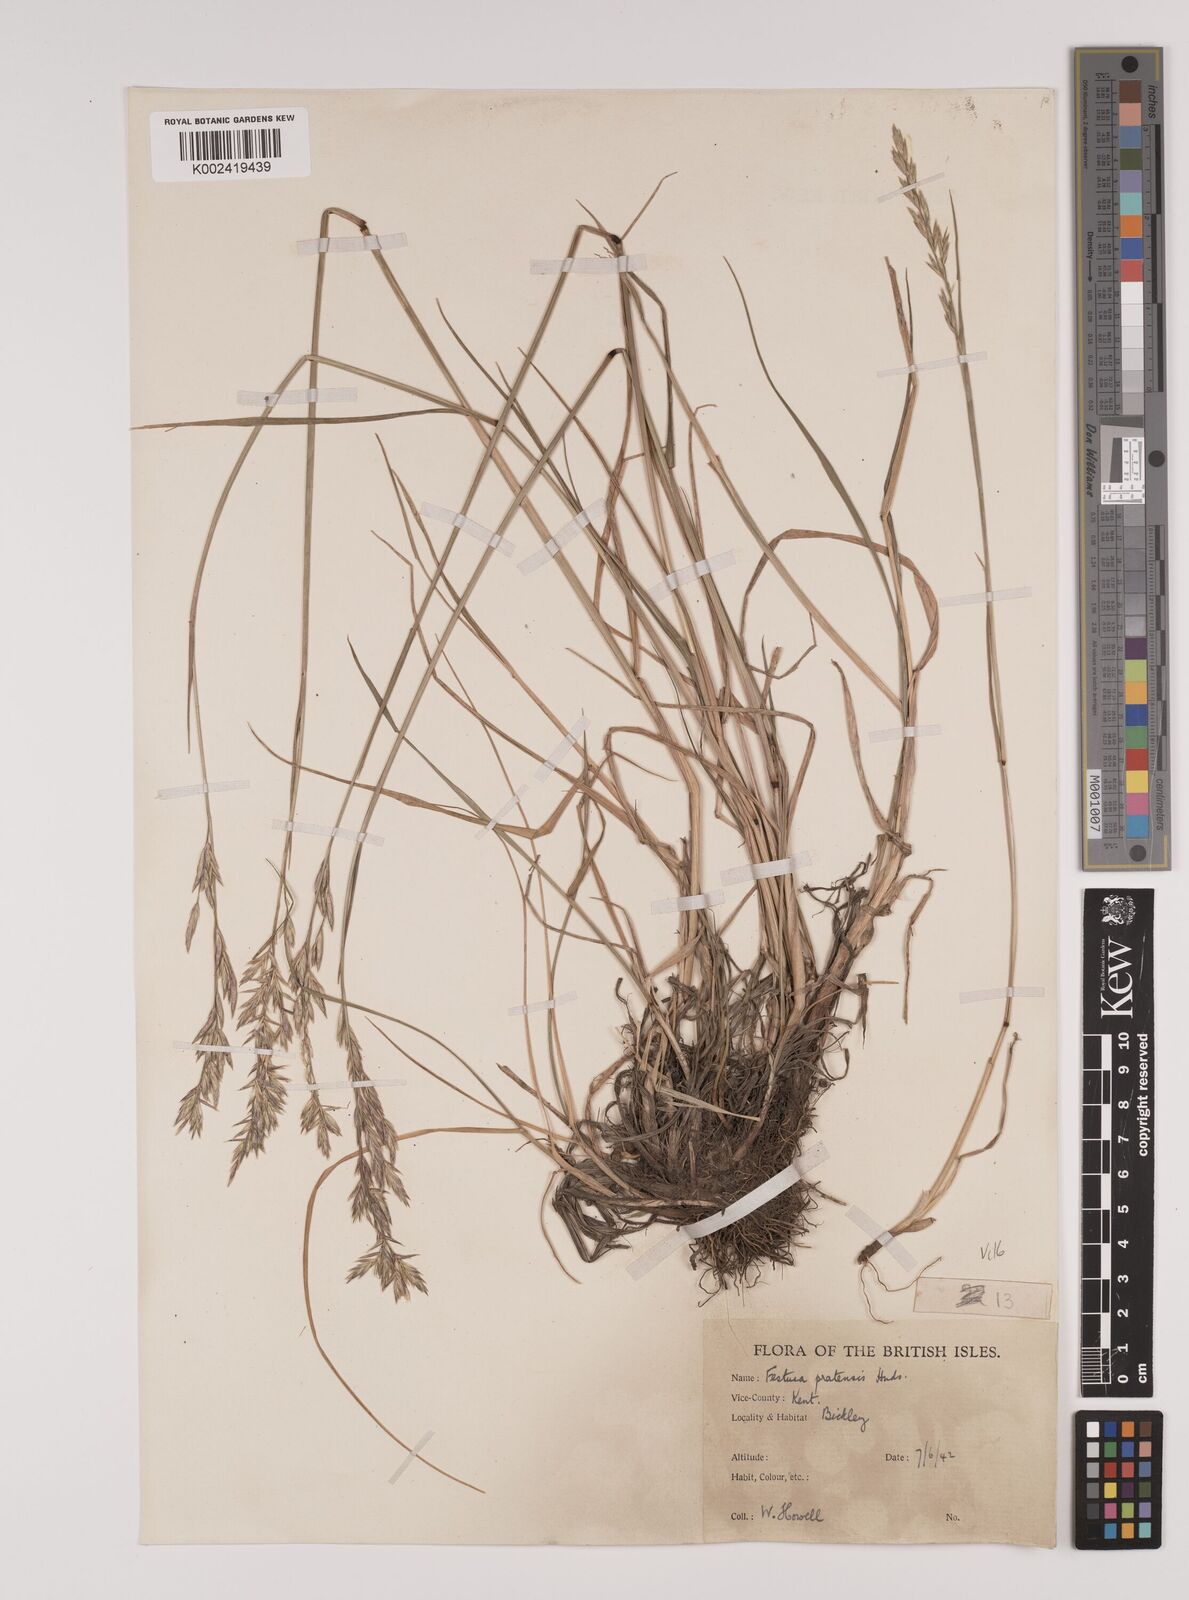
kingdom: Plantae
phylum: Tracheophyta
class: Liliopsida
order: Poales
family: Poaceae
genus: Lolium
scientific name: Lolium pratense
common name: Dover grass
